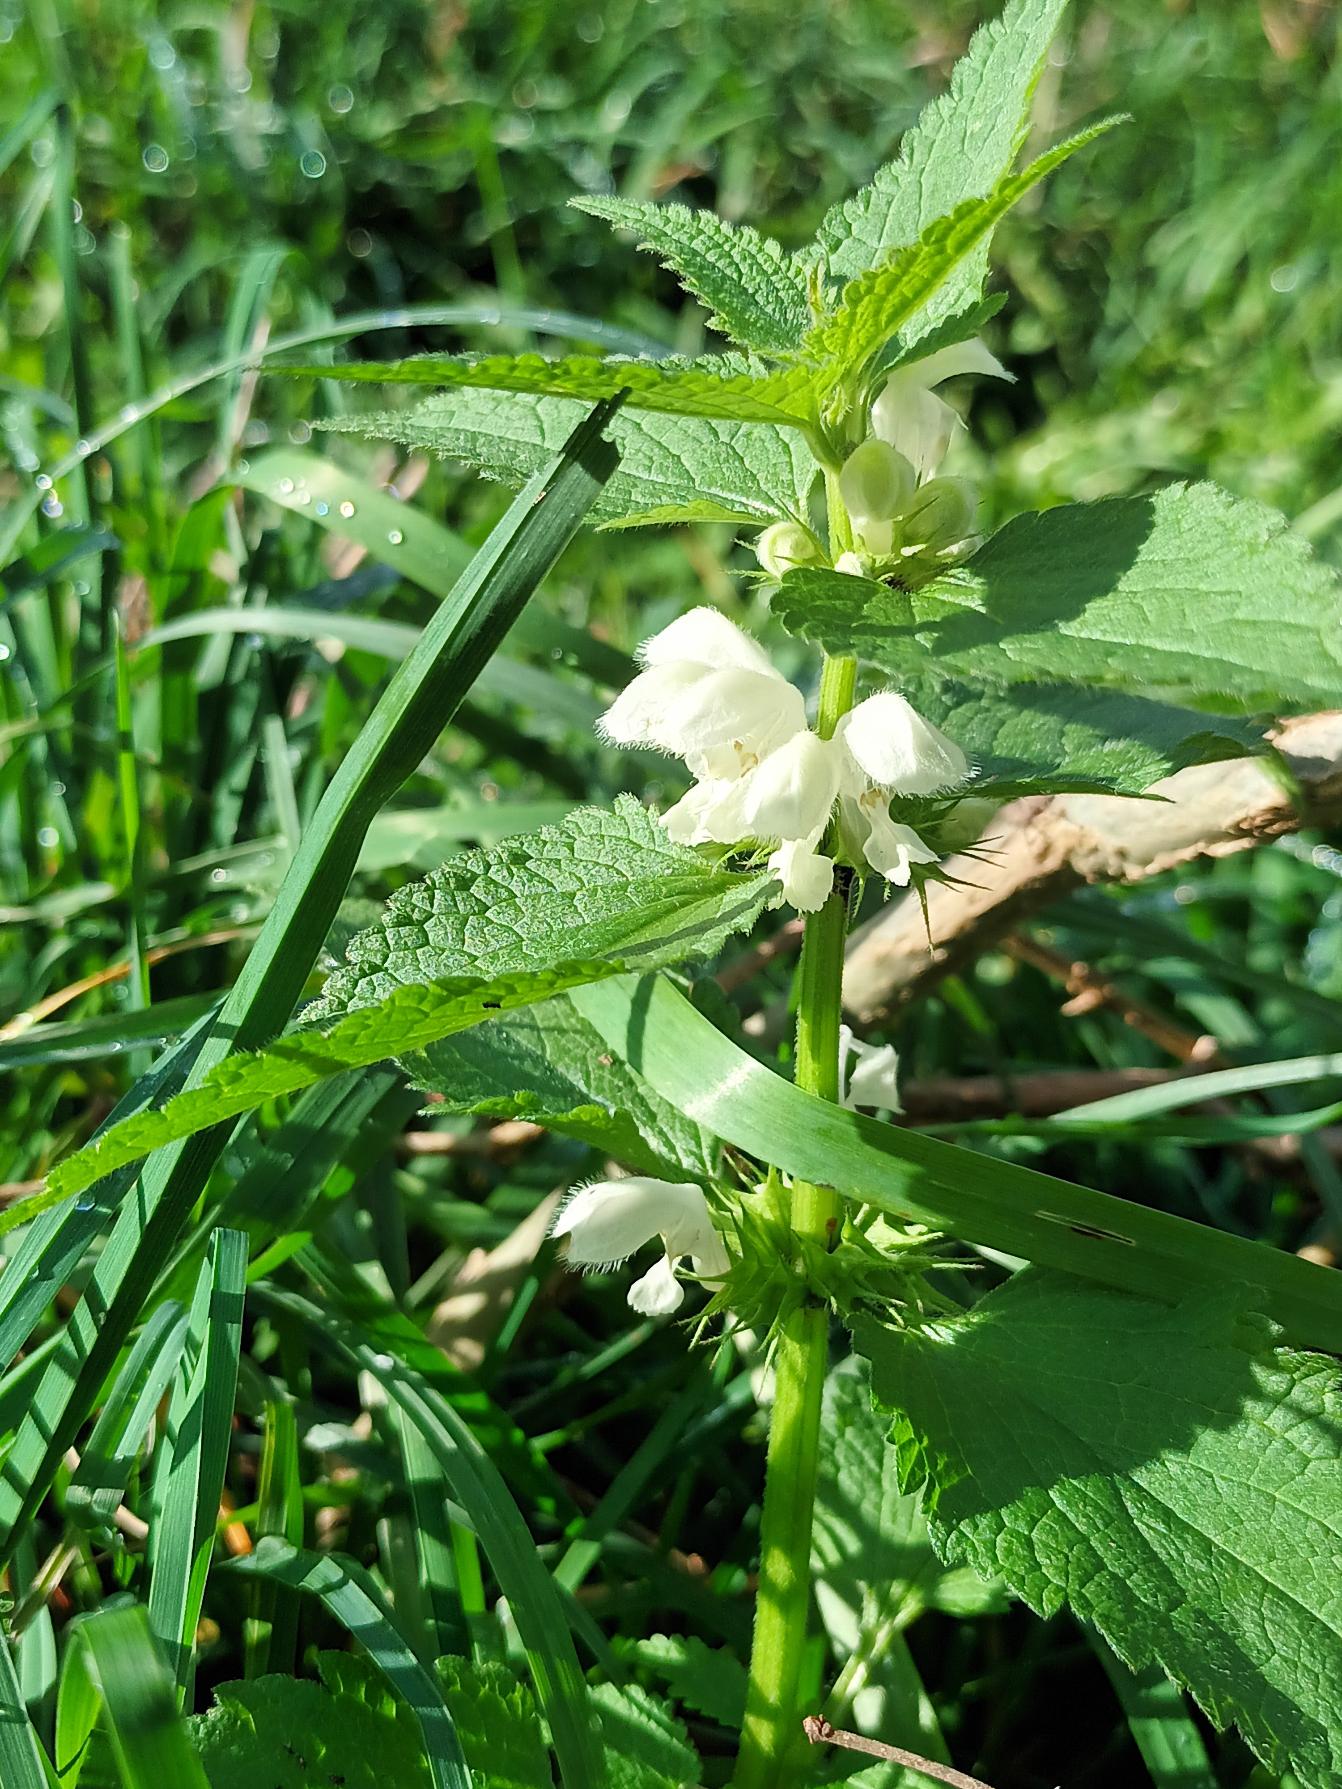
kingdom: Plantae
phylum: Tracheophyta
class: Magnoliopsida
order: Lamiales
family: Lamiaceae
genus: Lamium
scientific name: Lamium album
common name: Døvnælde
